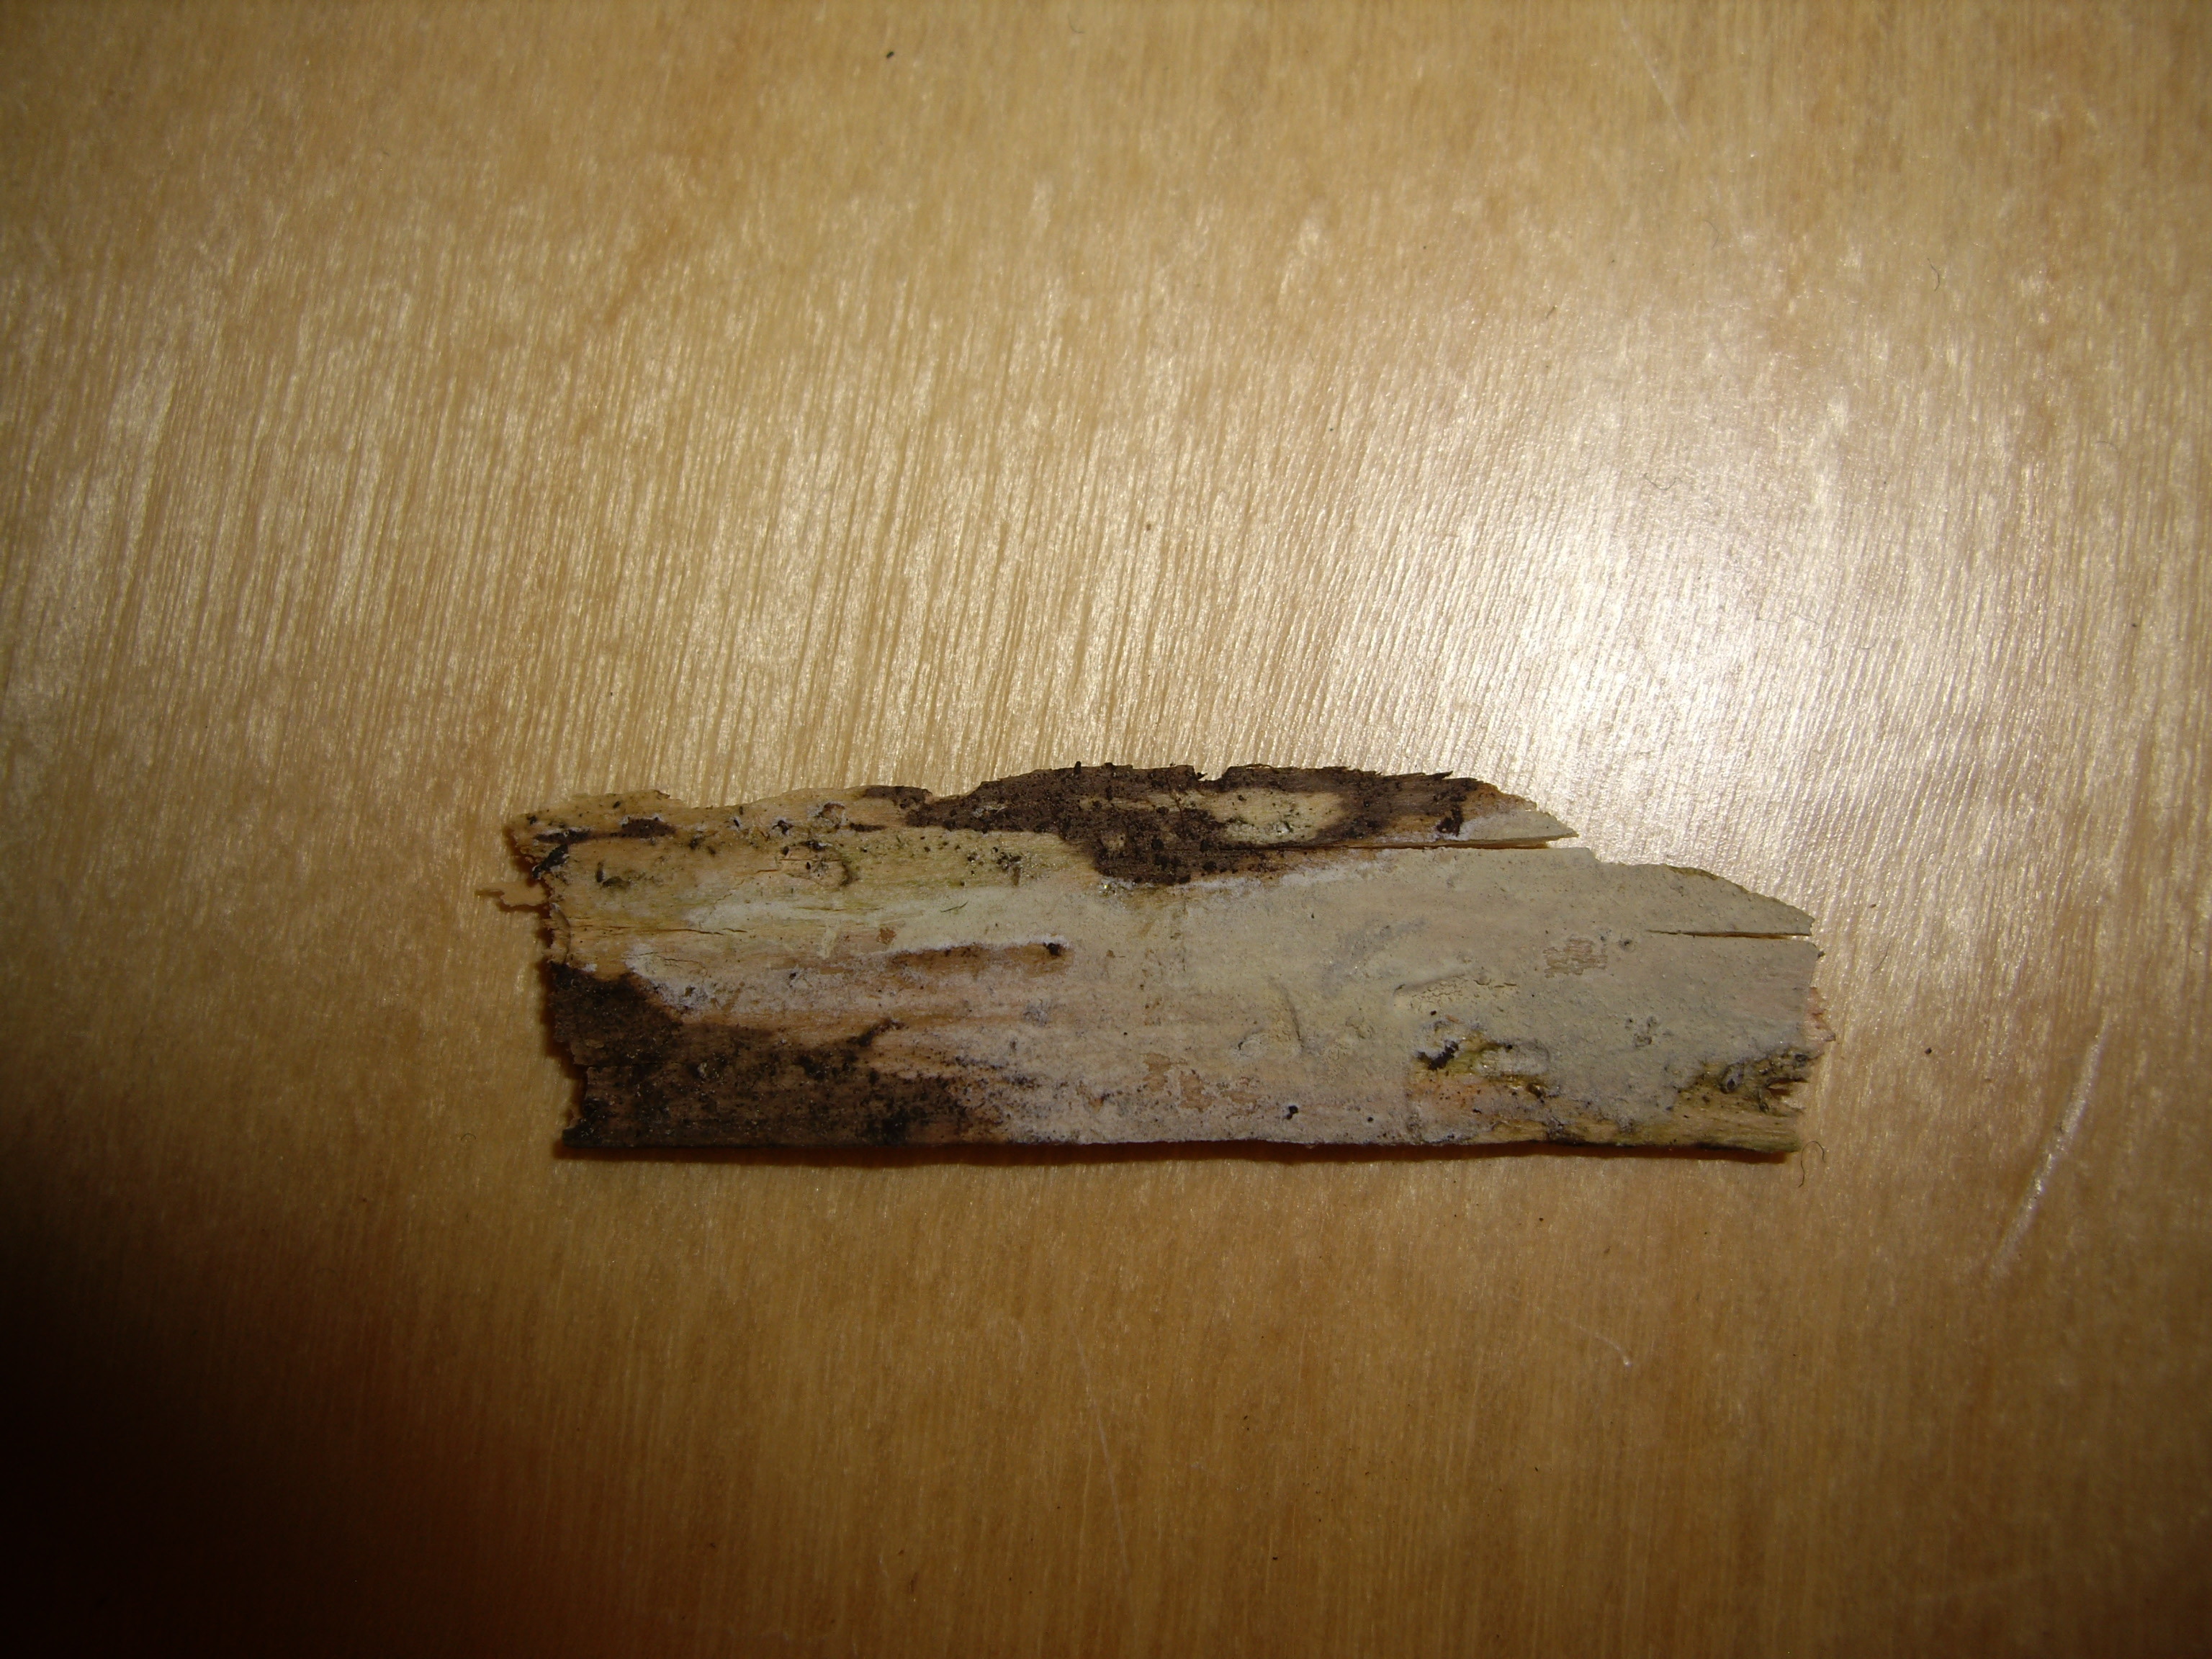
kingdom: Fungi
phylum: Basidiomycota
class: Agaricomycetes
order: Corticiales
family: Corticiaceae
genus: Lyomyces
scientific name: Lyomyces crustosus
